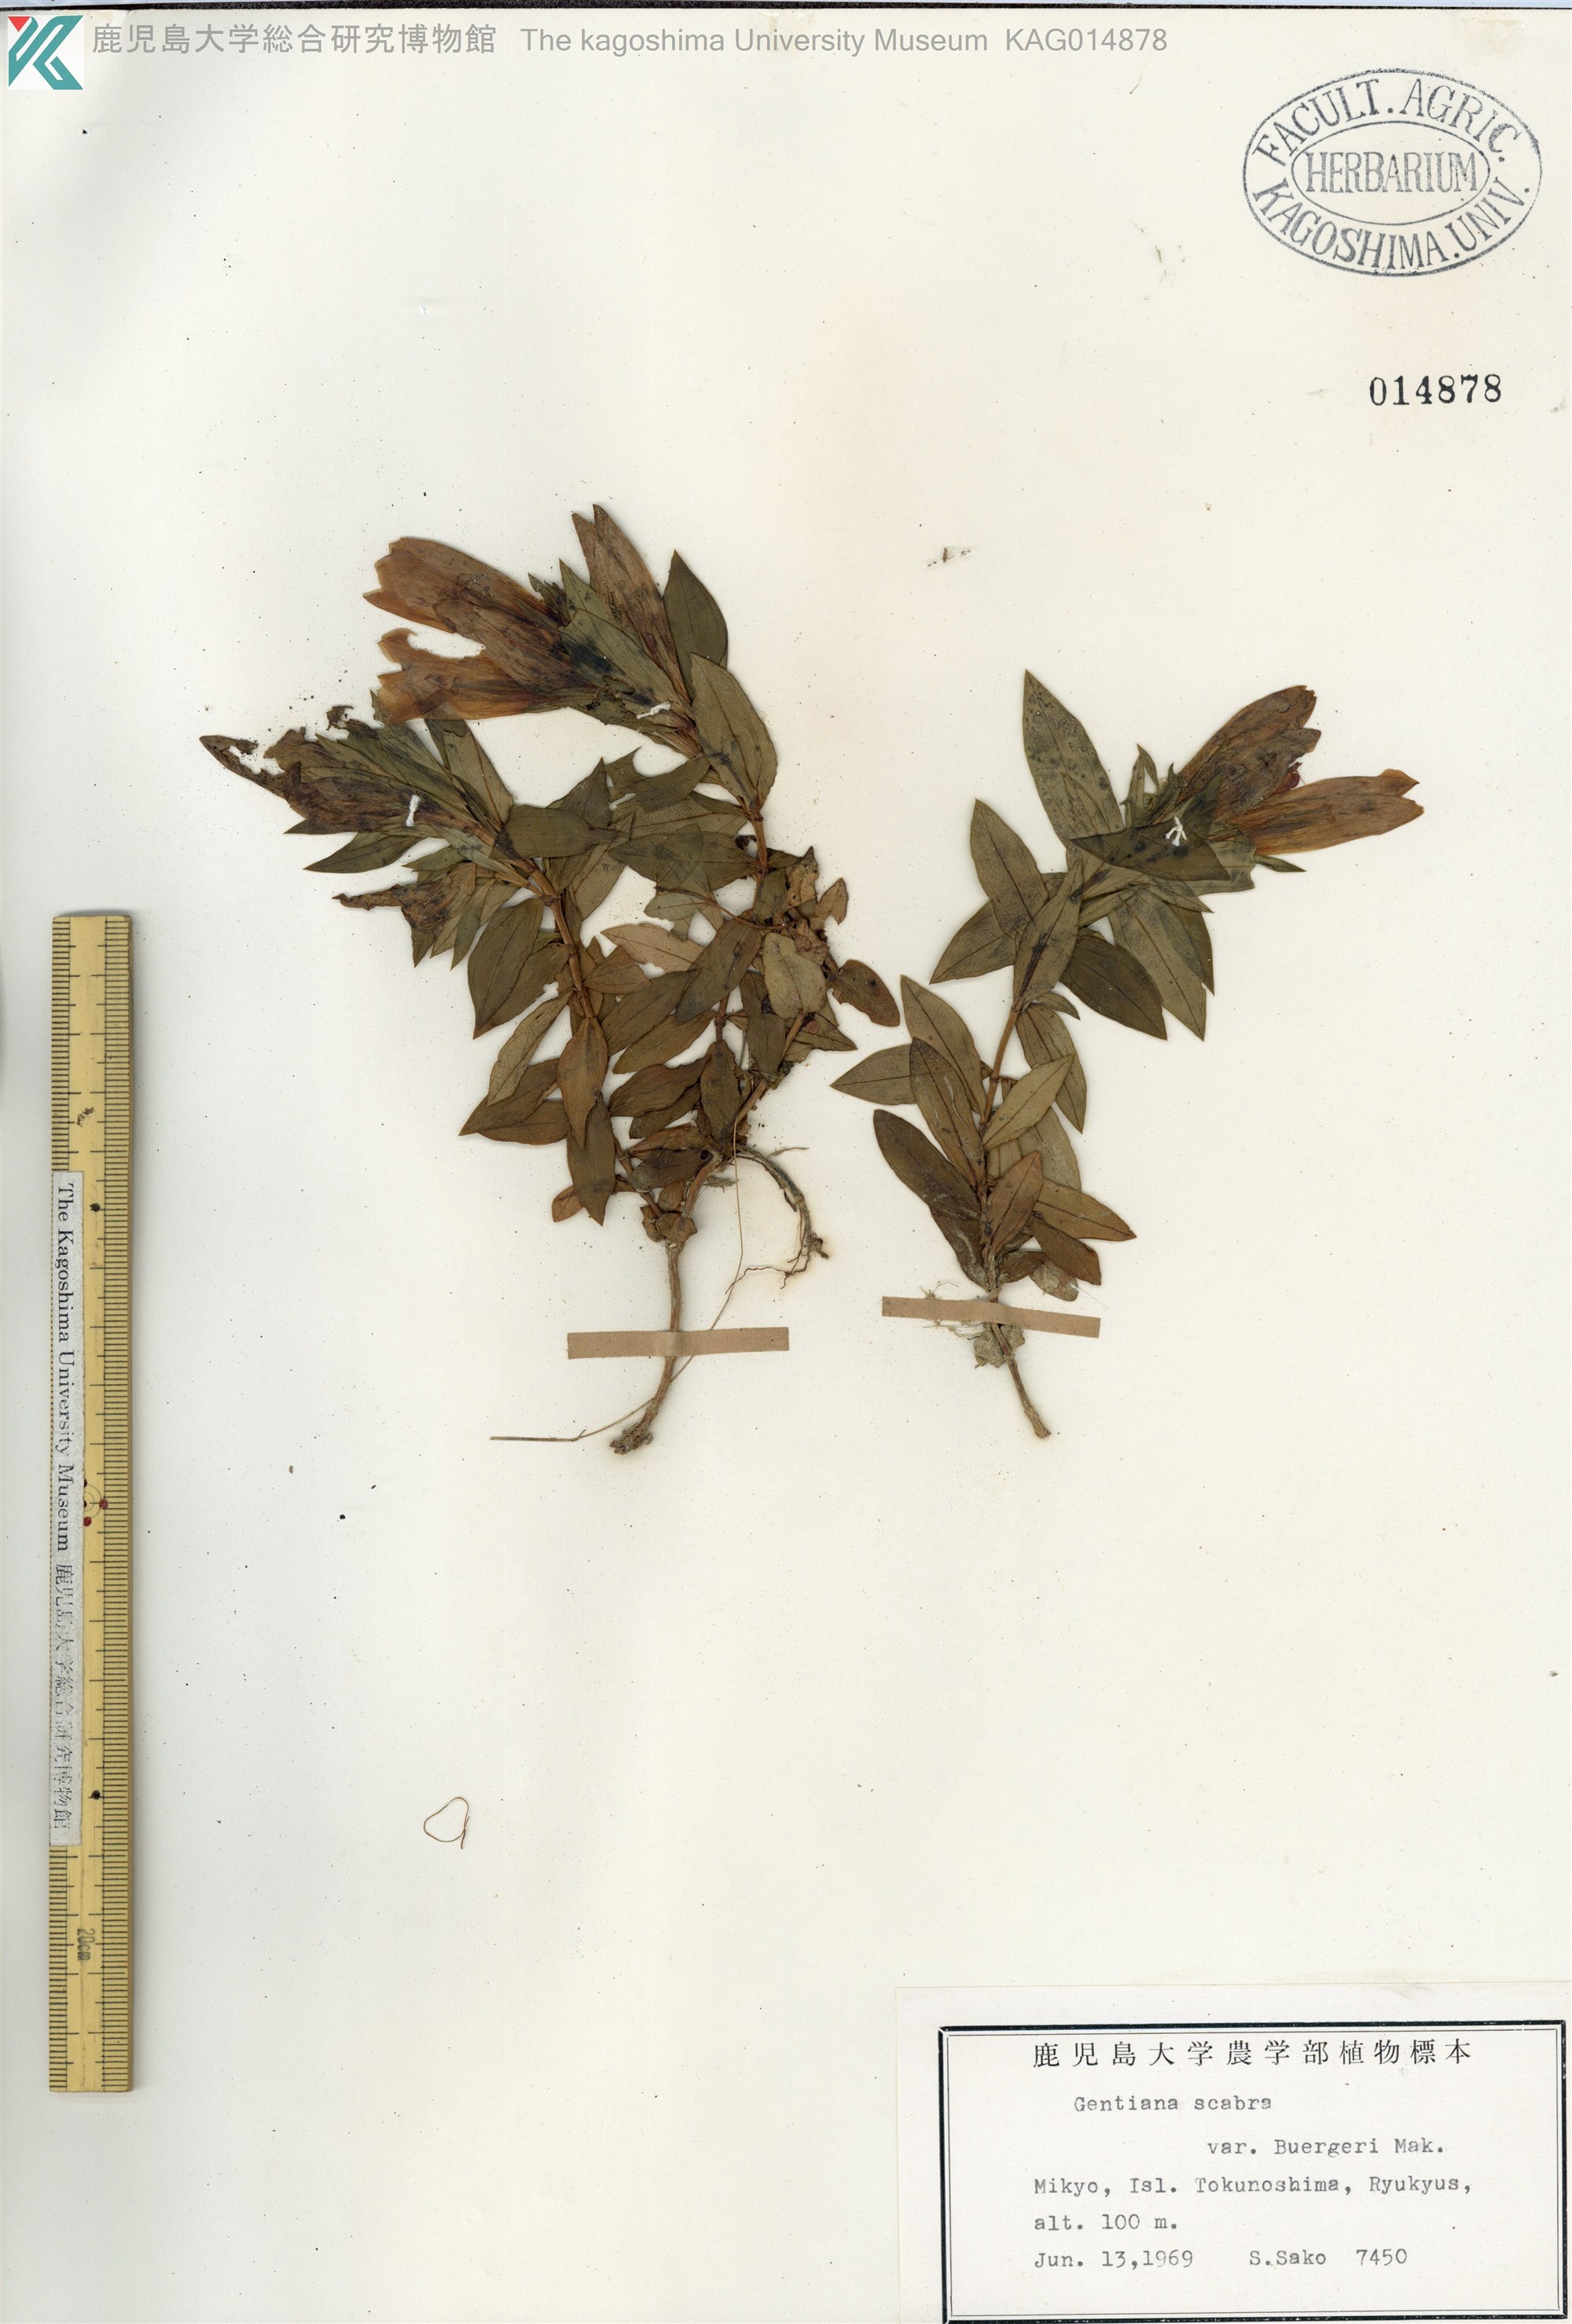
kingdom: Plantae
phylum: Tracheophyta
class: Magnoliopsida
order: Gentianales
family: Gentianaceae
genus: Gentiana
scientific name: Gentiana scabra
